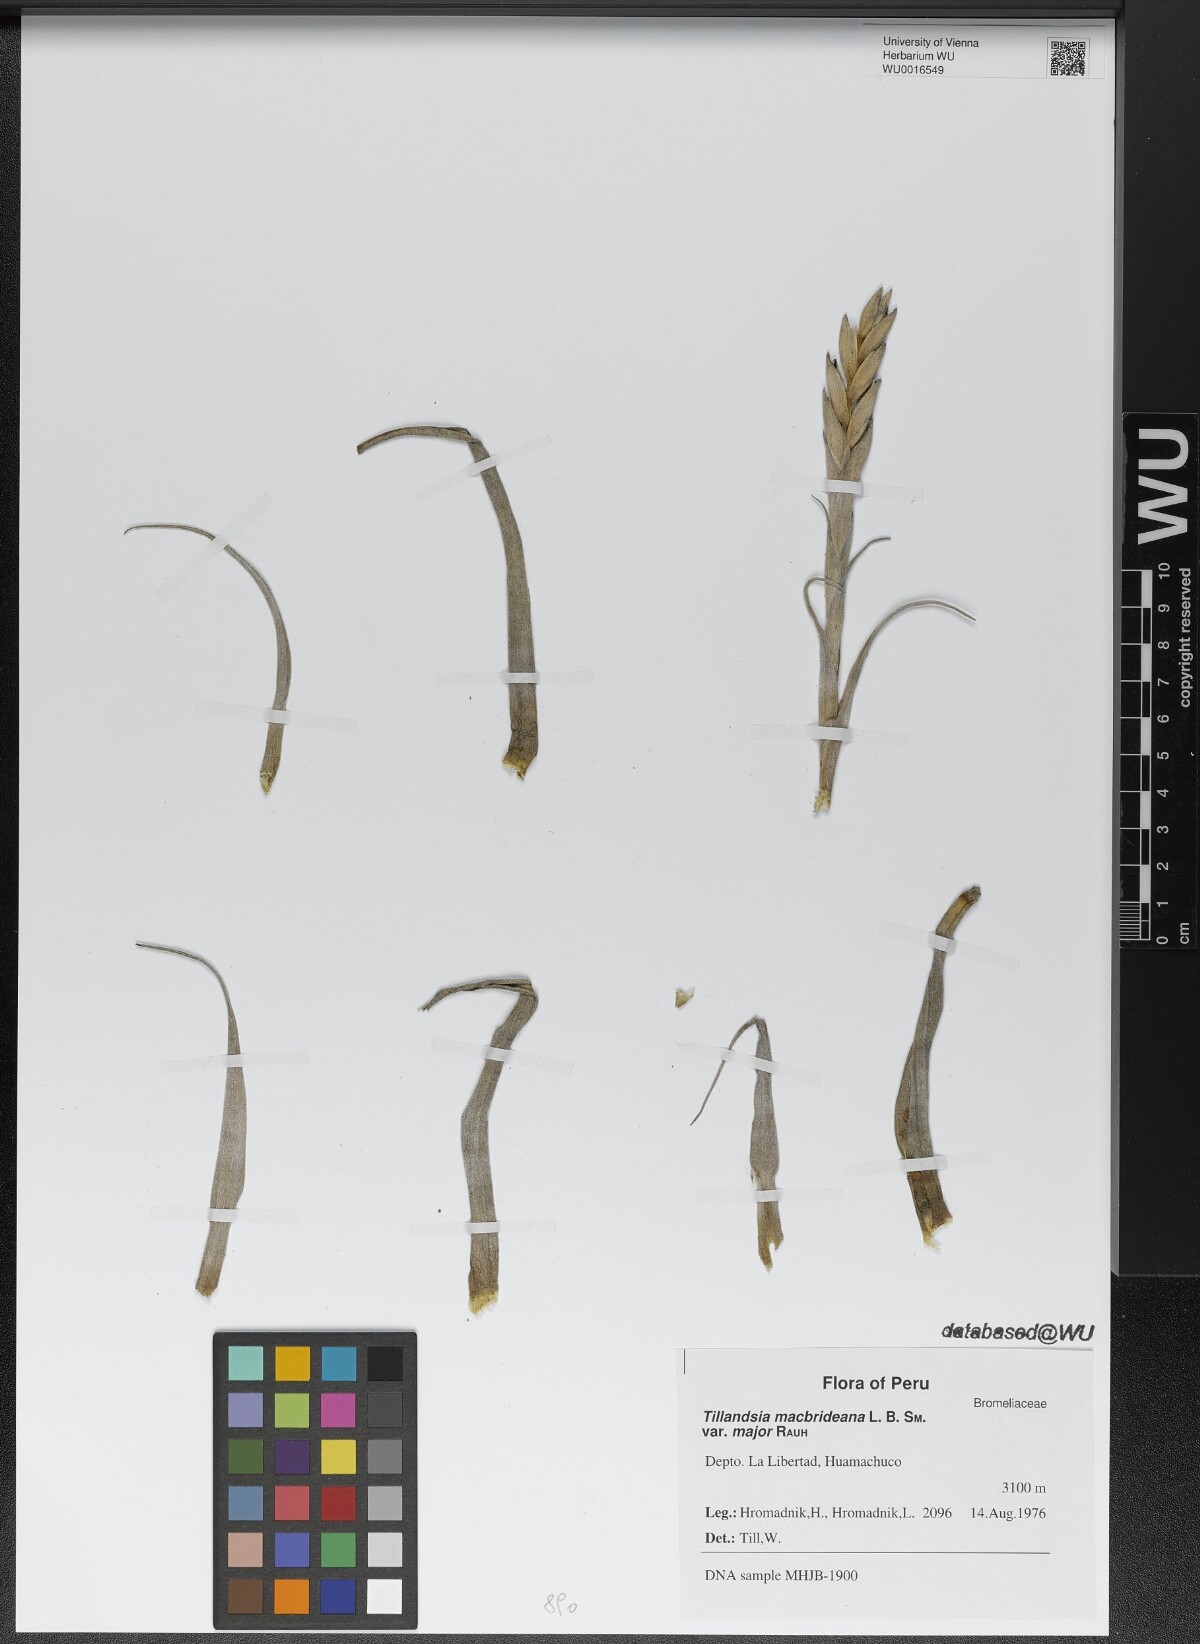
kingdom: Plantae
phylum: Tracheophyta
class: Liliopsida
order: Poales
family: Bromeliaceae
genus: Tillandsia
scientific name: Tillandsia macbrideana
